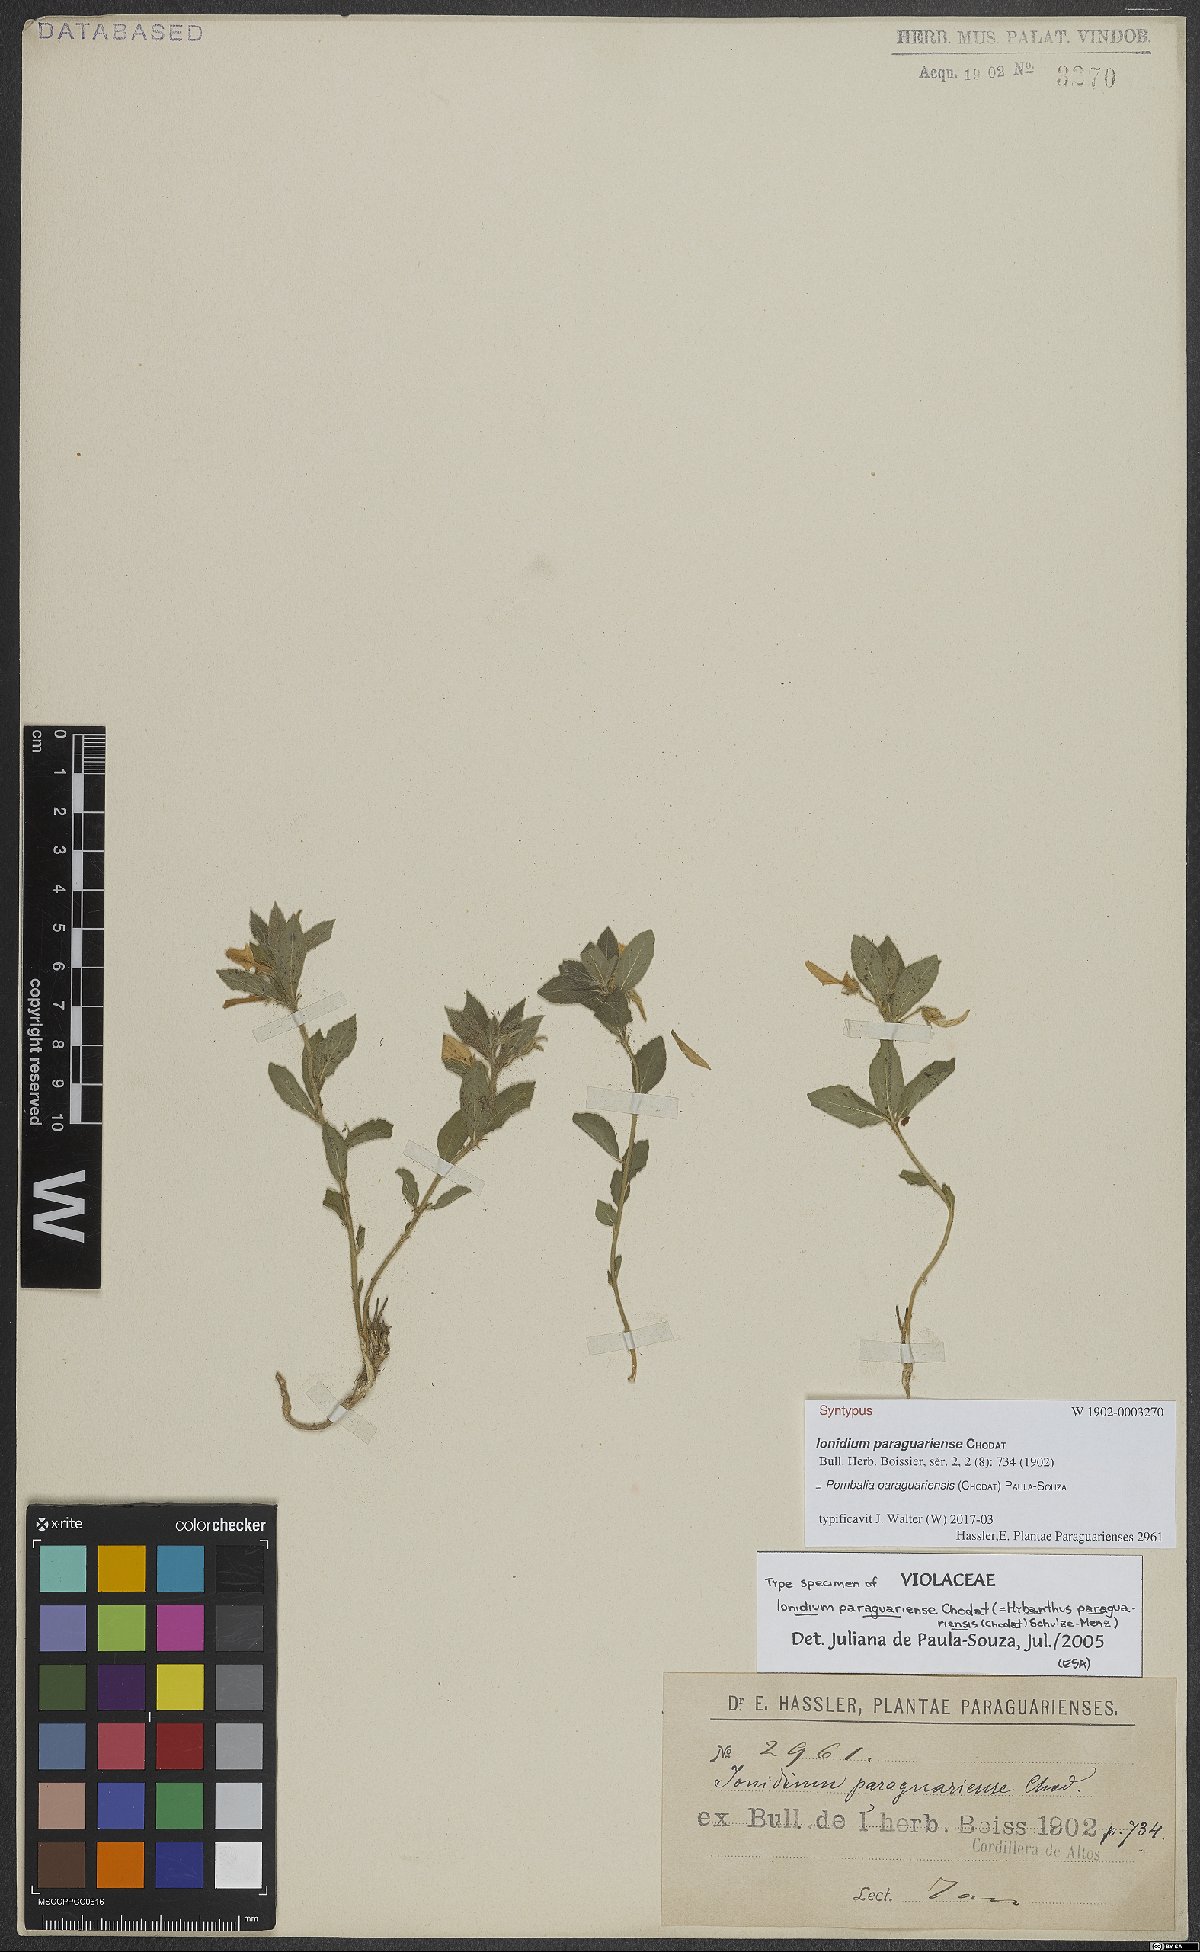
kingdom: Plantae
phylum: Tracheophyta
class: Magnoliopsida
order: Malpighiales
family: Violaceae
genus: Pombalia
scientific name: Pombalia paraguariensis
